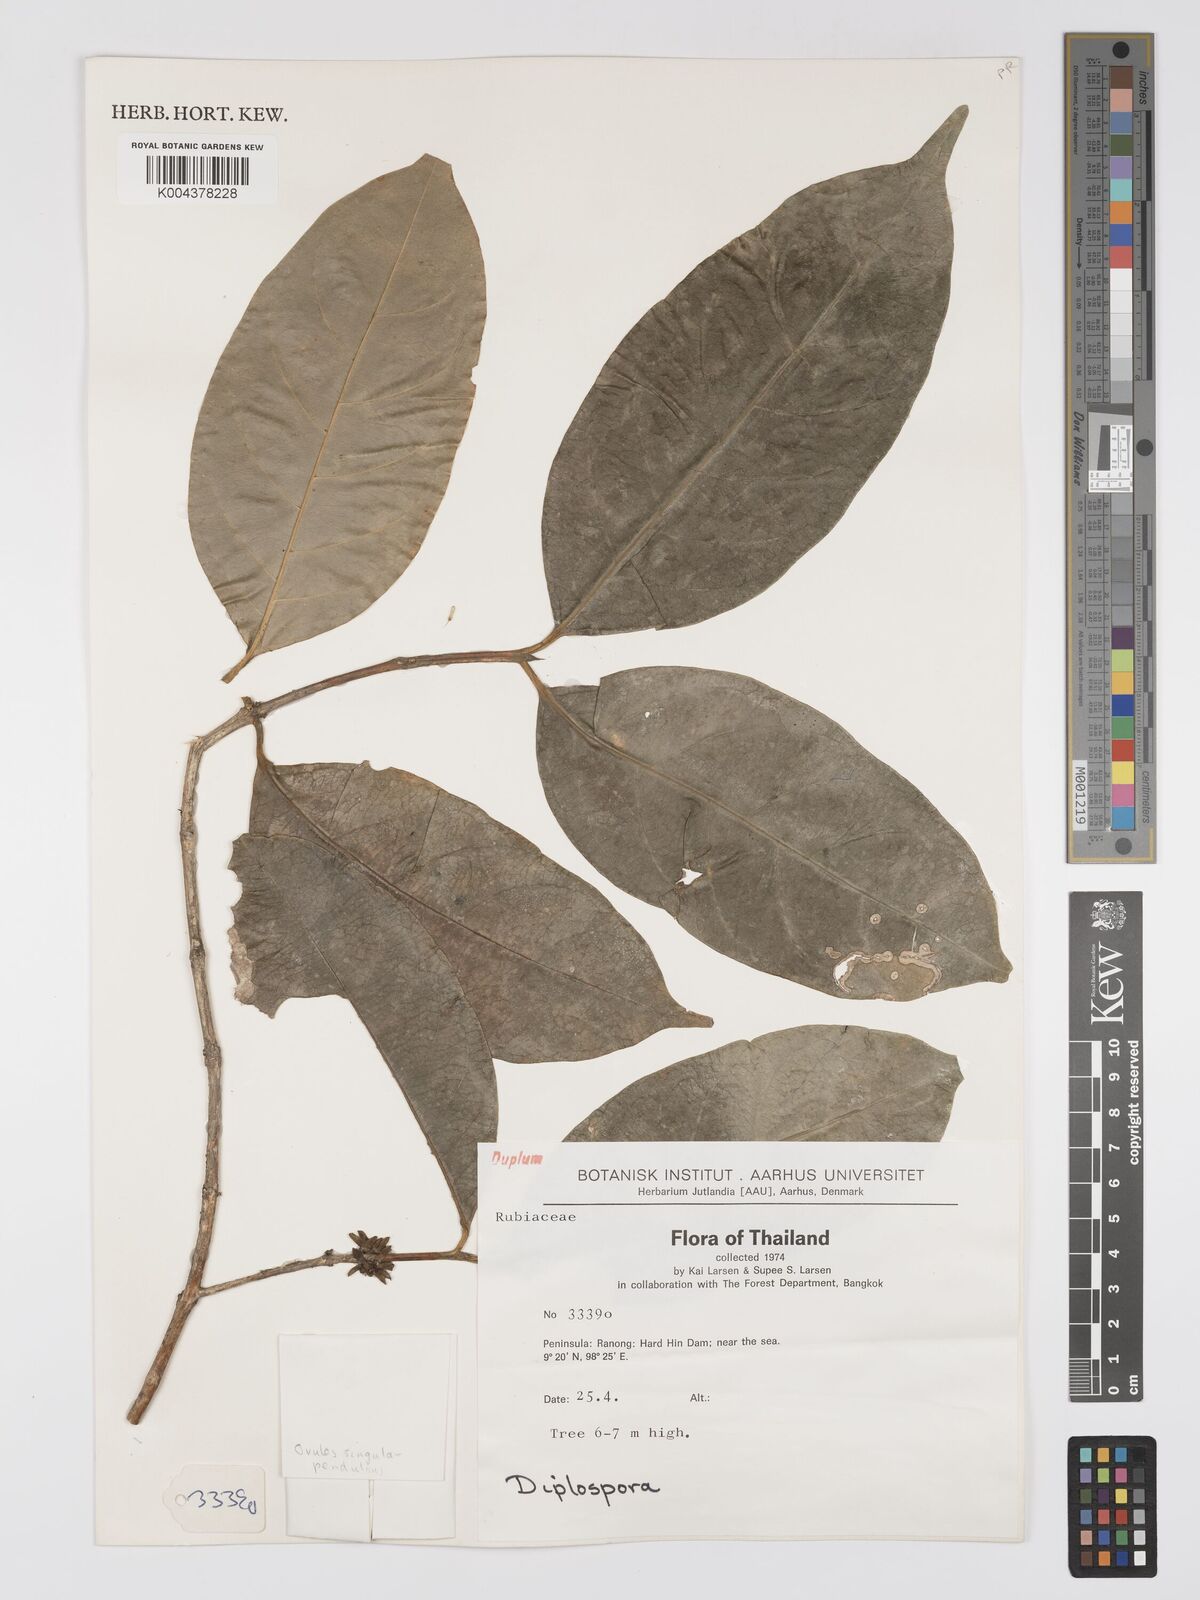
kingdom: Plantae
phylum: Tracheophyta
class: Magnoliopsida
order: Gentianales
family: Rubiaceae
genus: Diplospora
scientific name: Diplospora
